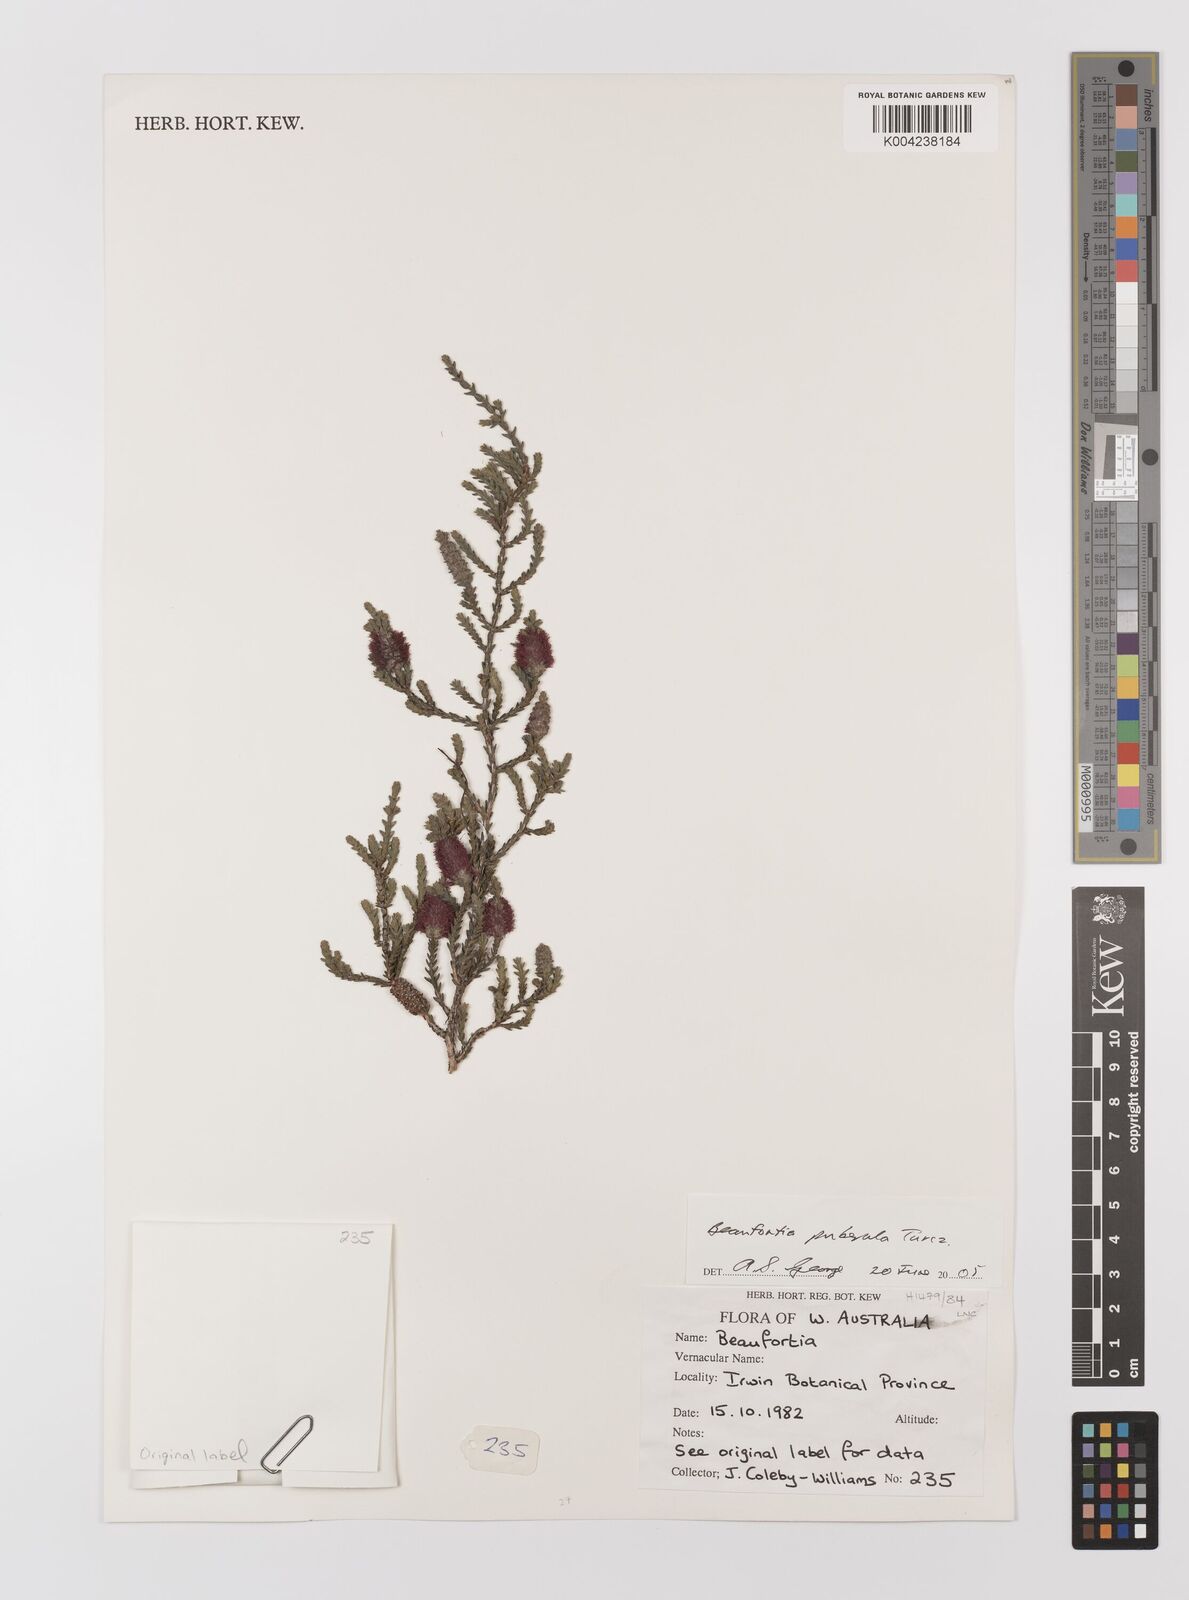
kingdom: Plantae
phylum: Tracheophyta
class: Magnoliopsida
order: Myrtales
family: Myrtaceae
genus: Melaleuca
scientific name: Melaleuca micrantha
